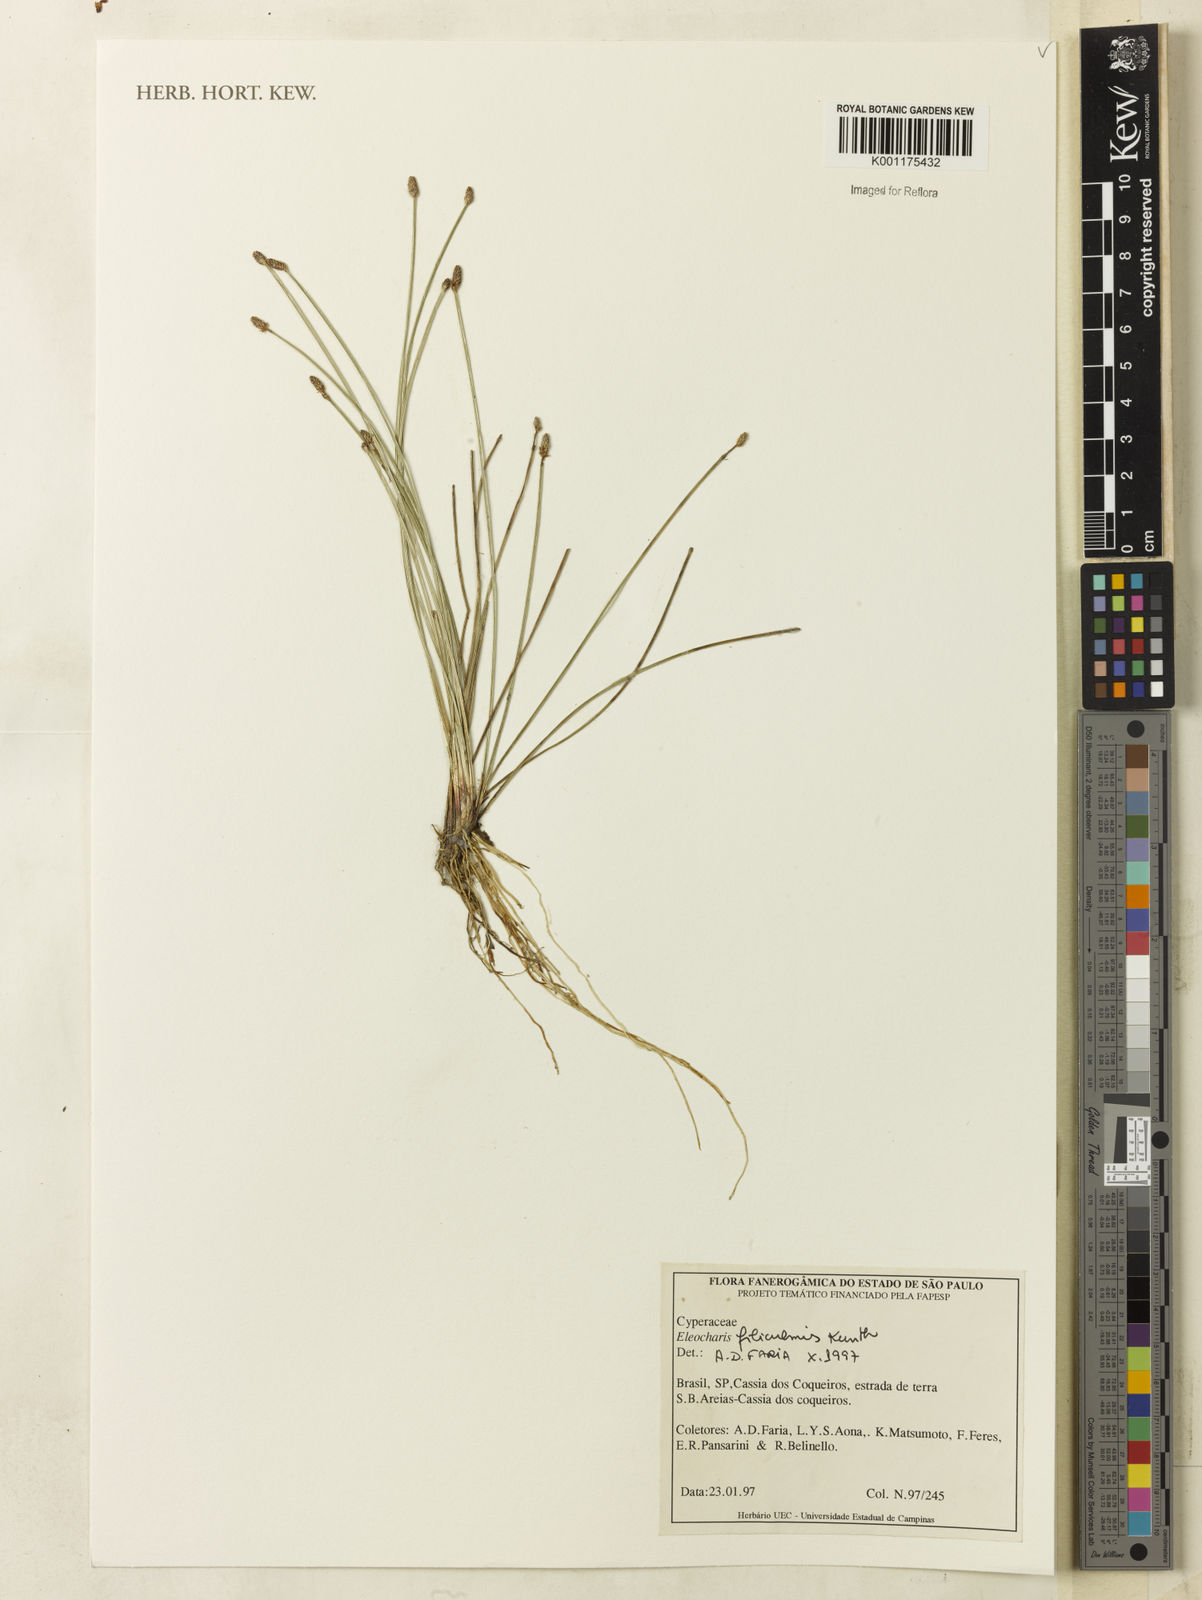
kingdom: Plantae
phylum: Tracheophyta
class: Liliopsida
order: Poales
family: Cyperaceae
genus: Eleocharis
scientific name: Eleocharis filiculmis
